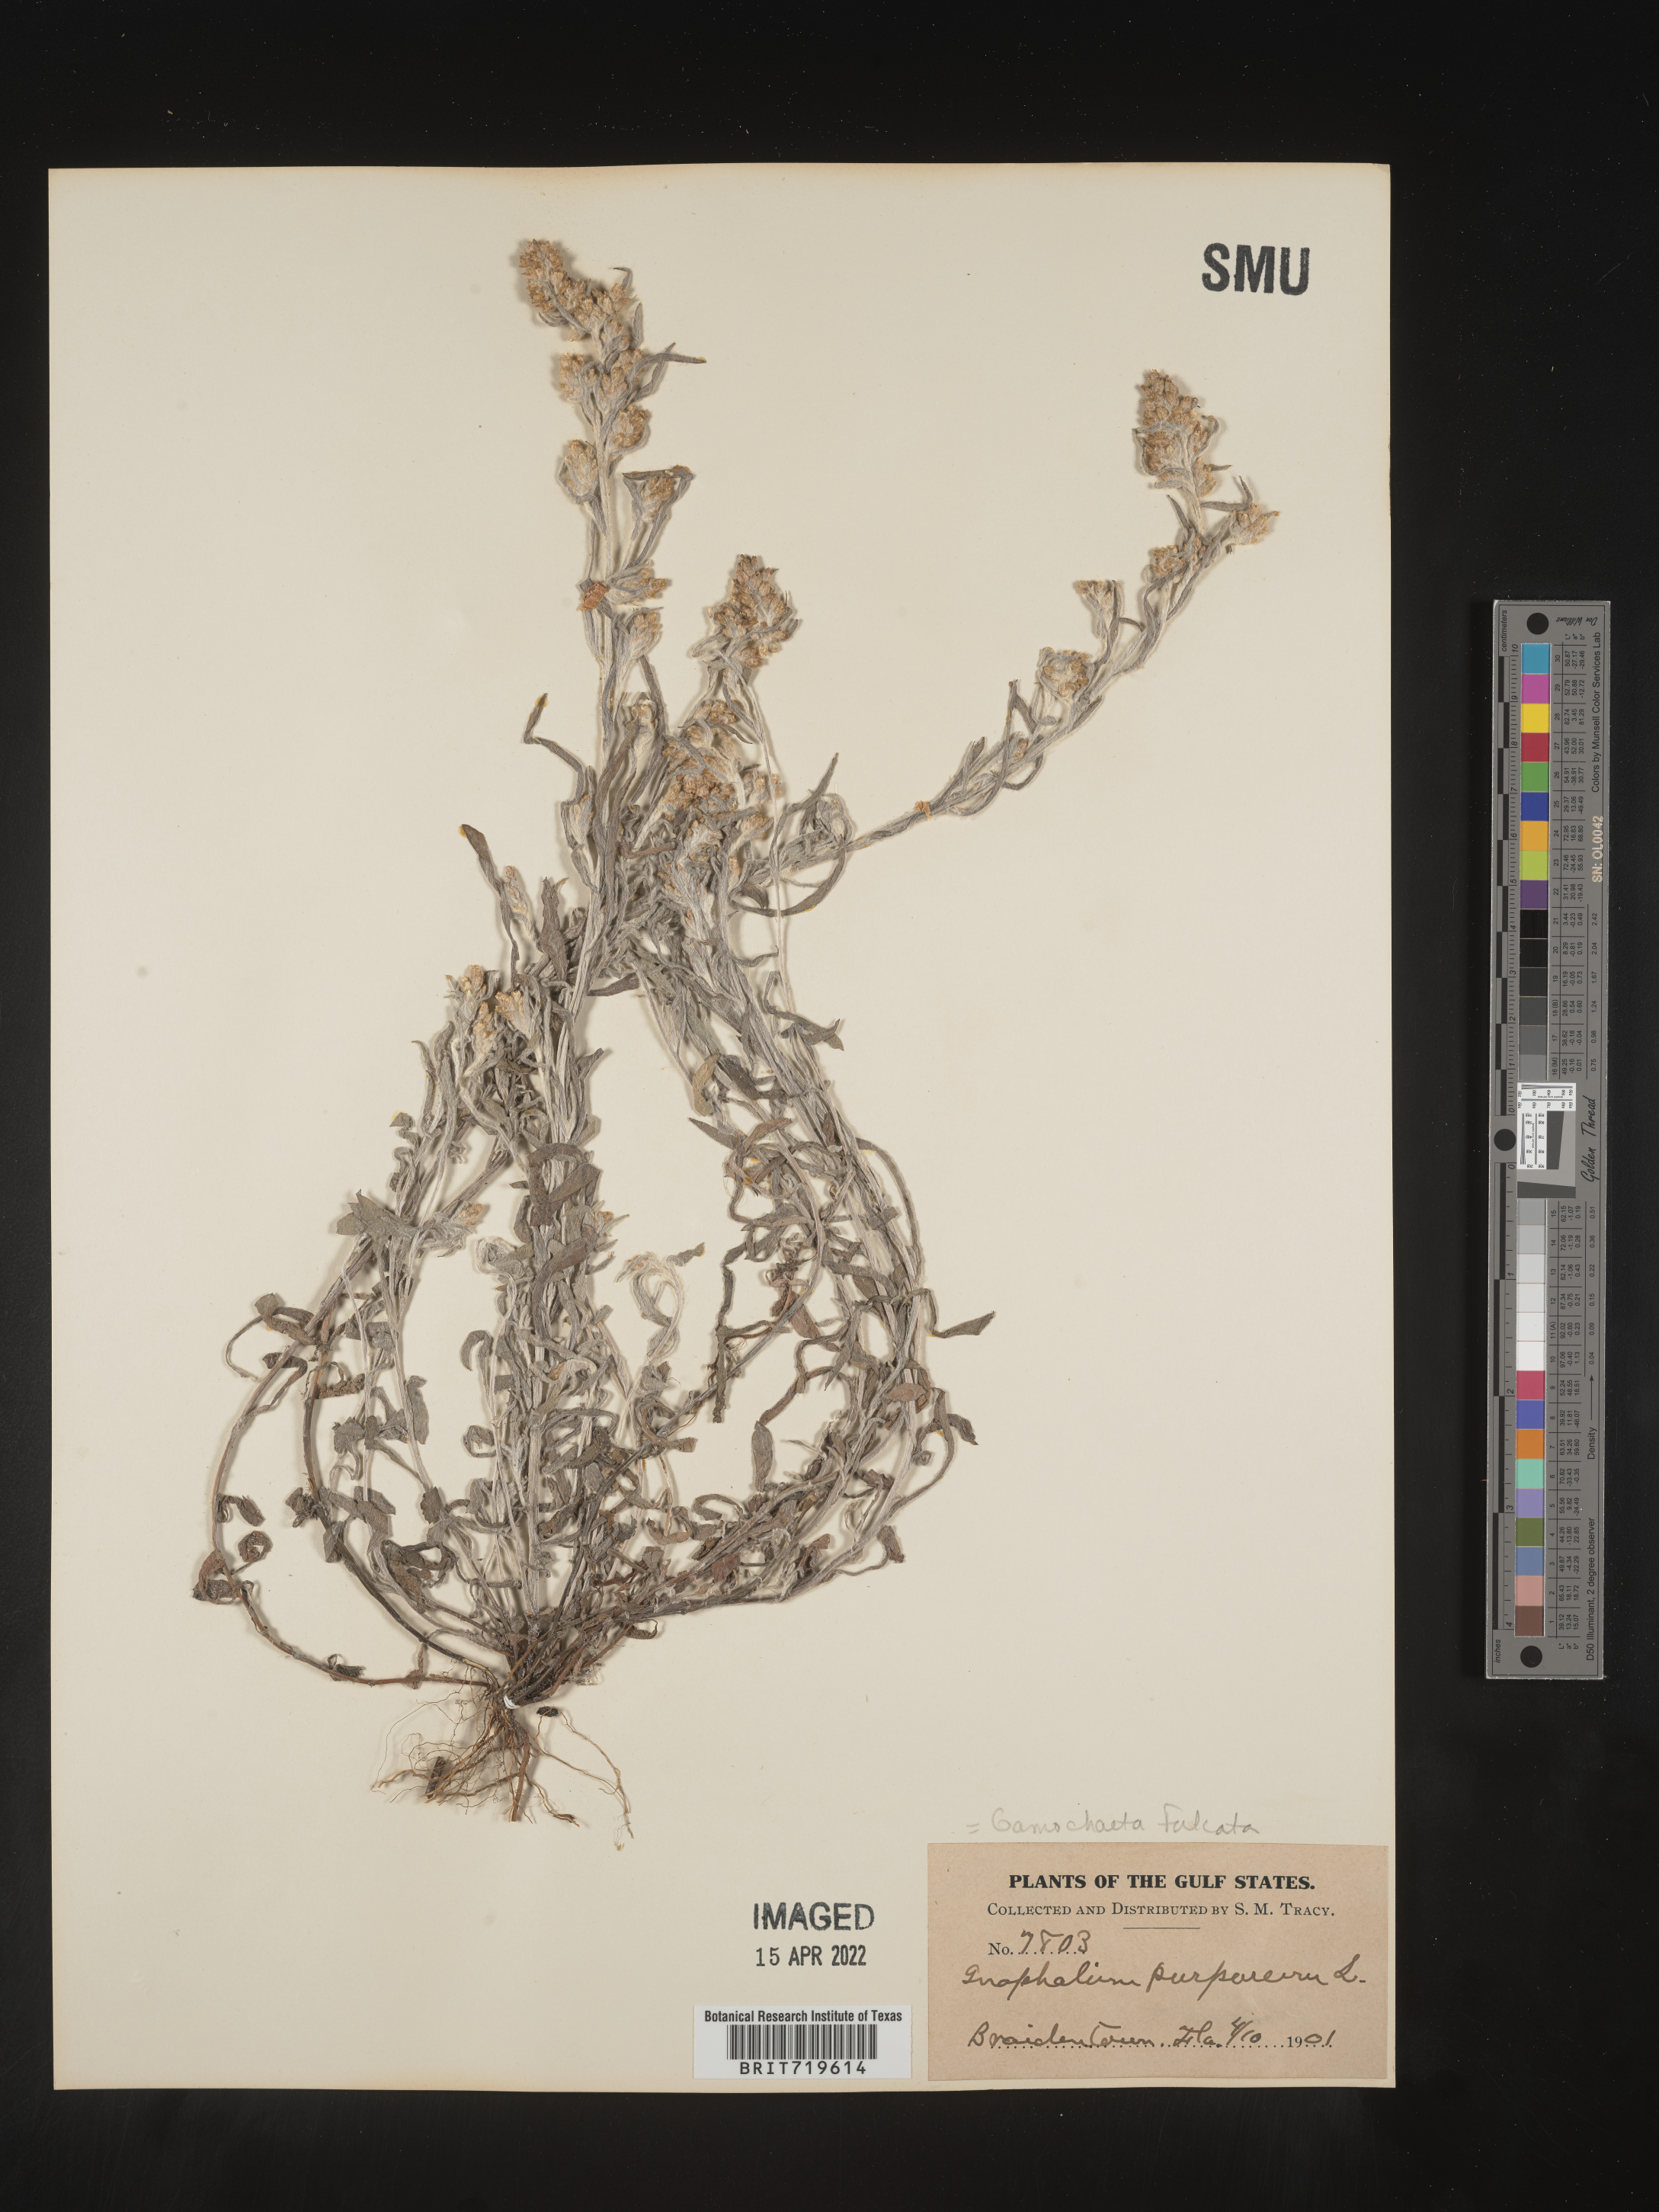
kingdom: Plantae
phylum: Tracheophyta
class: Magnoliopsida
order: Asterales
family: Asteraceae
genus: Gamochaeta
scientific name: Gamochaeta falcata
